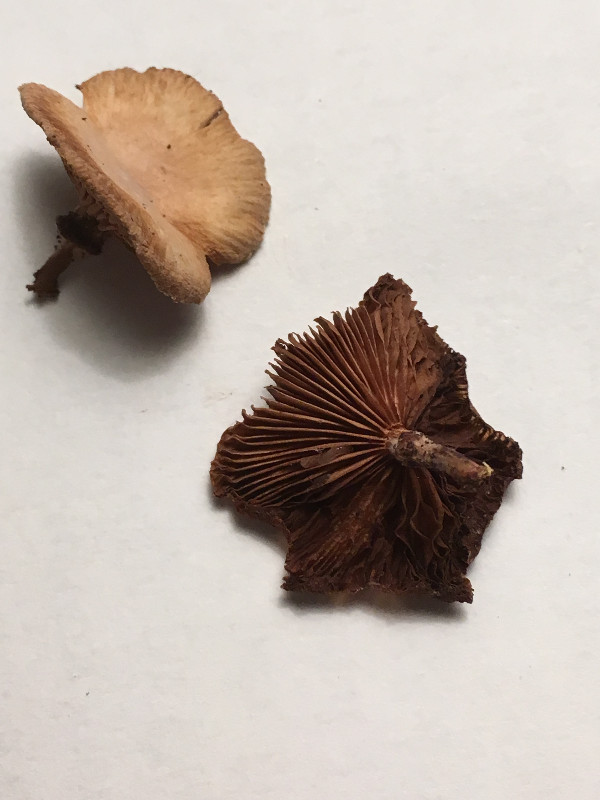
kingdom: Fungi
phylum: Basidiomycota
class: Agaricomycetes
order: Agaricales
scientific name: Agaricales
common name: champignonordenen
